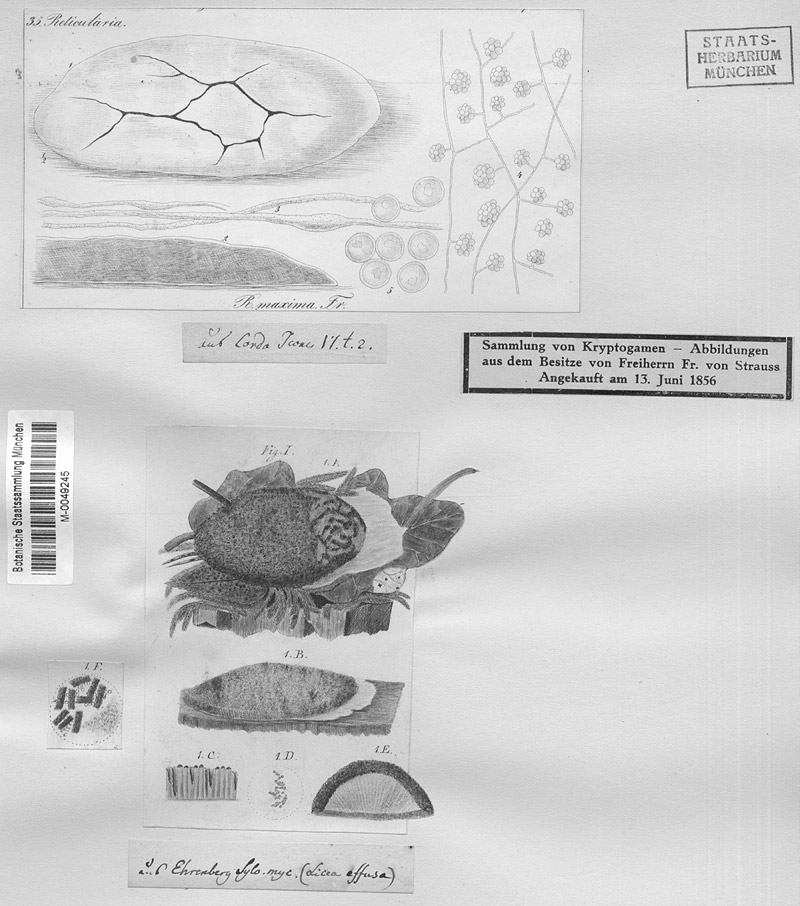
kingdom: Protozoa
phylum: Mycetozoa
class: Myxomycetes
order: Cribrariales
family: Cribrariaceae
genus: Lindbladia
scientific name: Lindbladia tubulina
